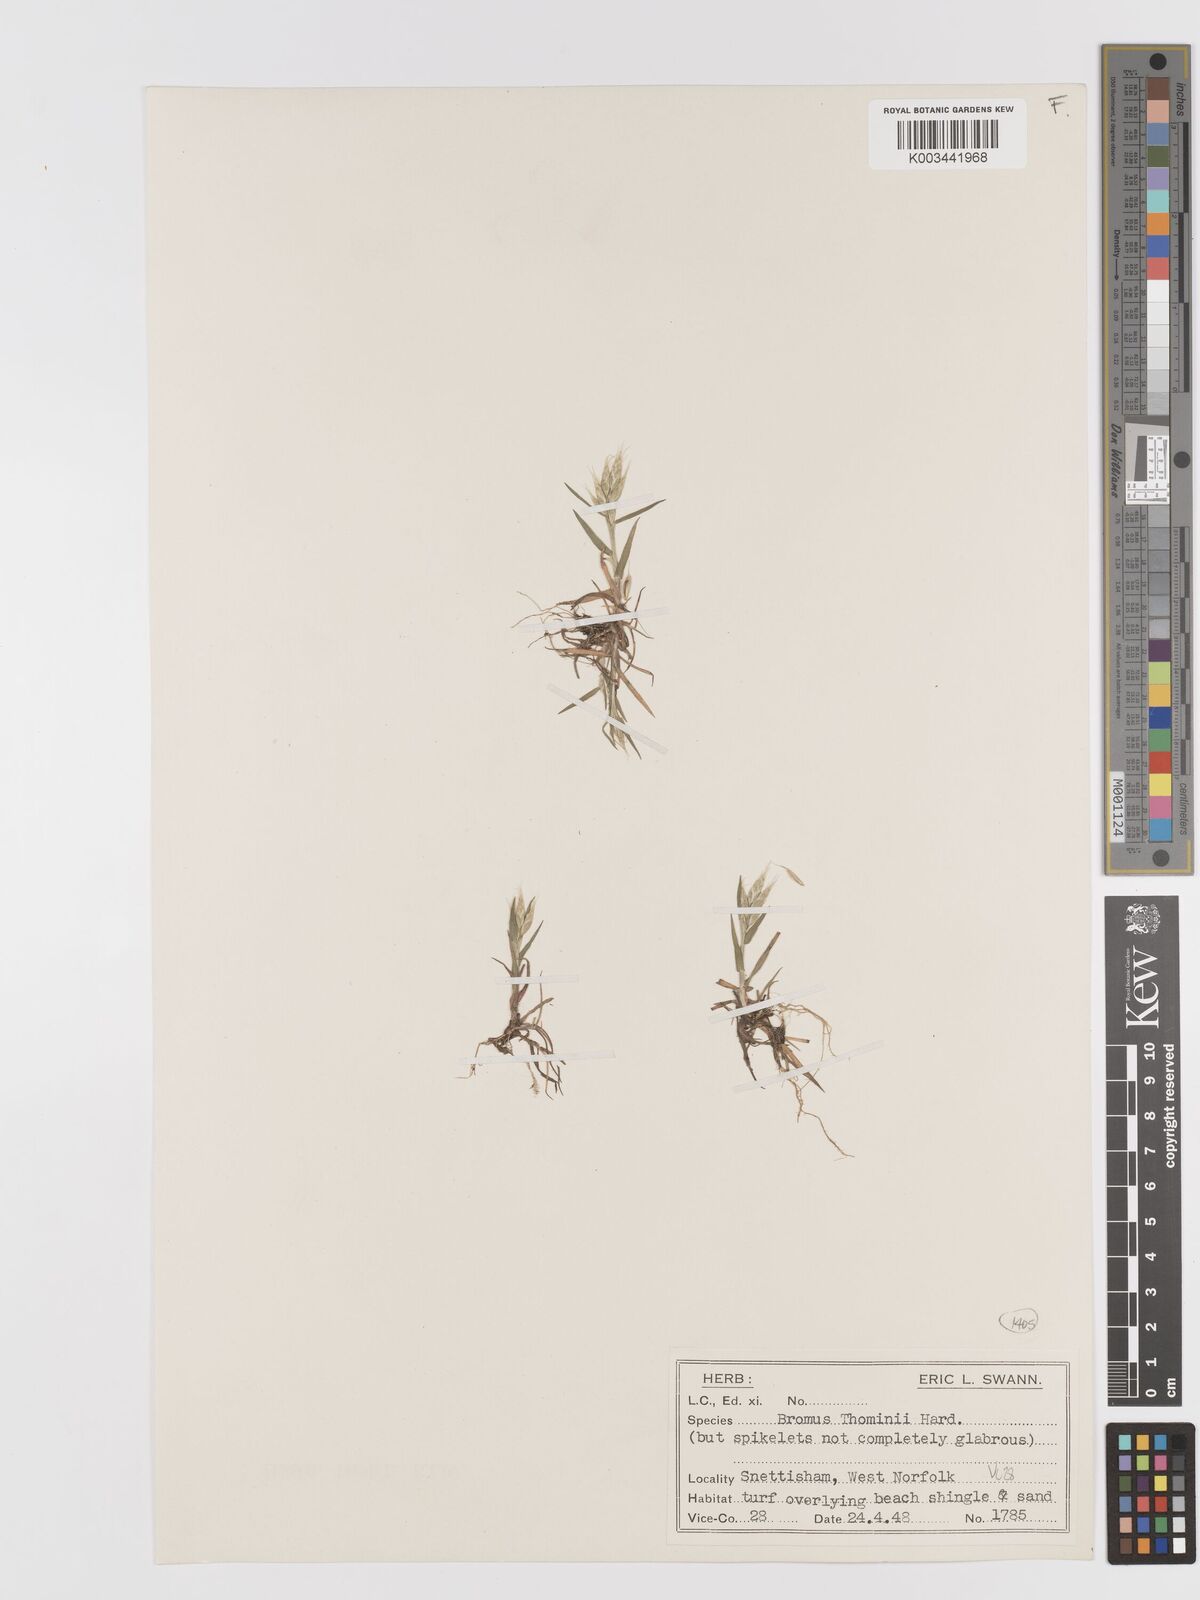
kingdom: Plantae
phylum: Tracheophyta
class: Liliopsida
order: Poales
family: Poaceae
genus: Bromus
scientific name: Bromus hordeaceus
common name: Soft brome
